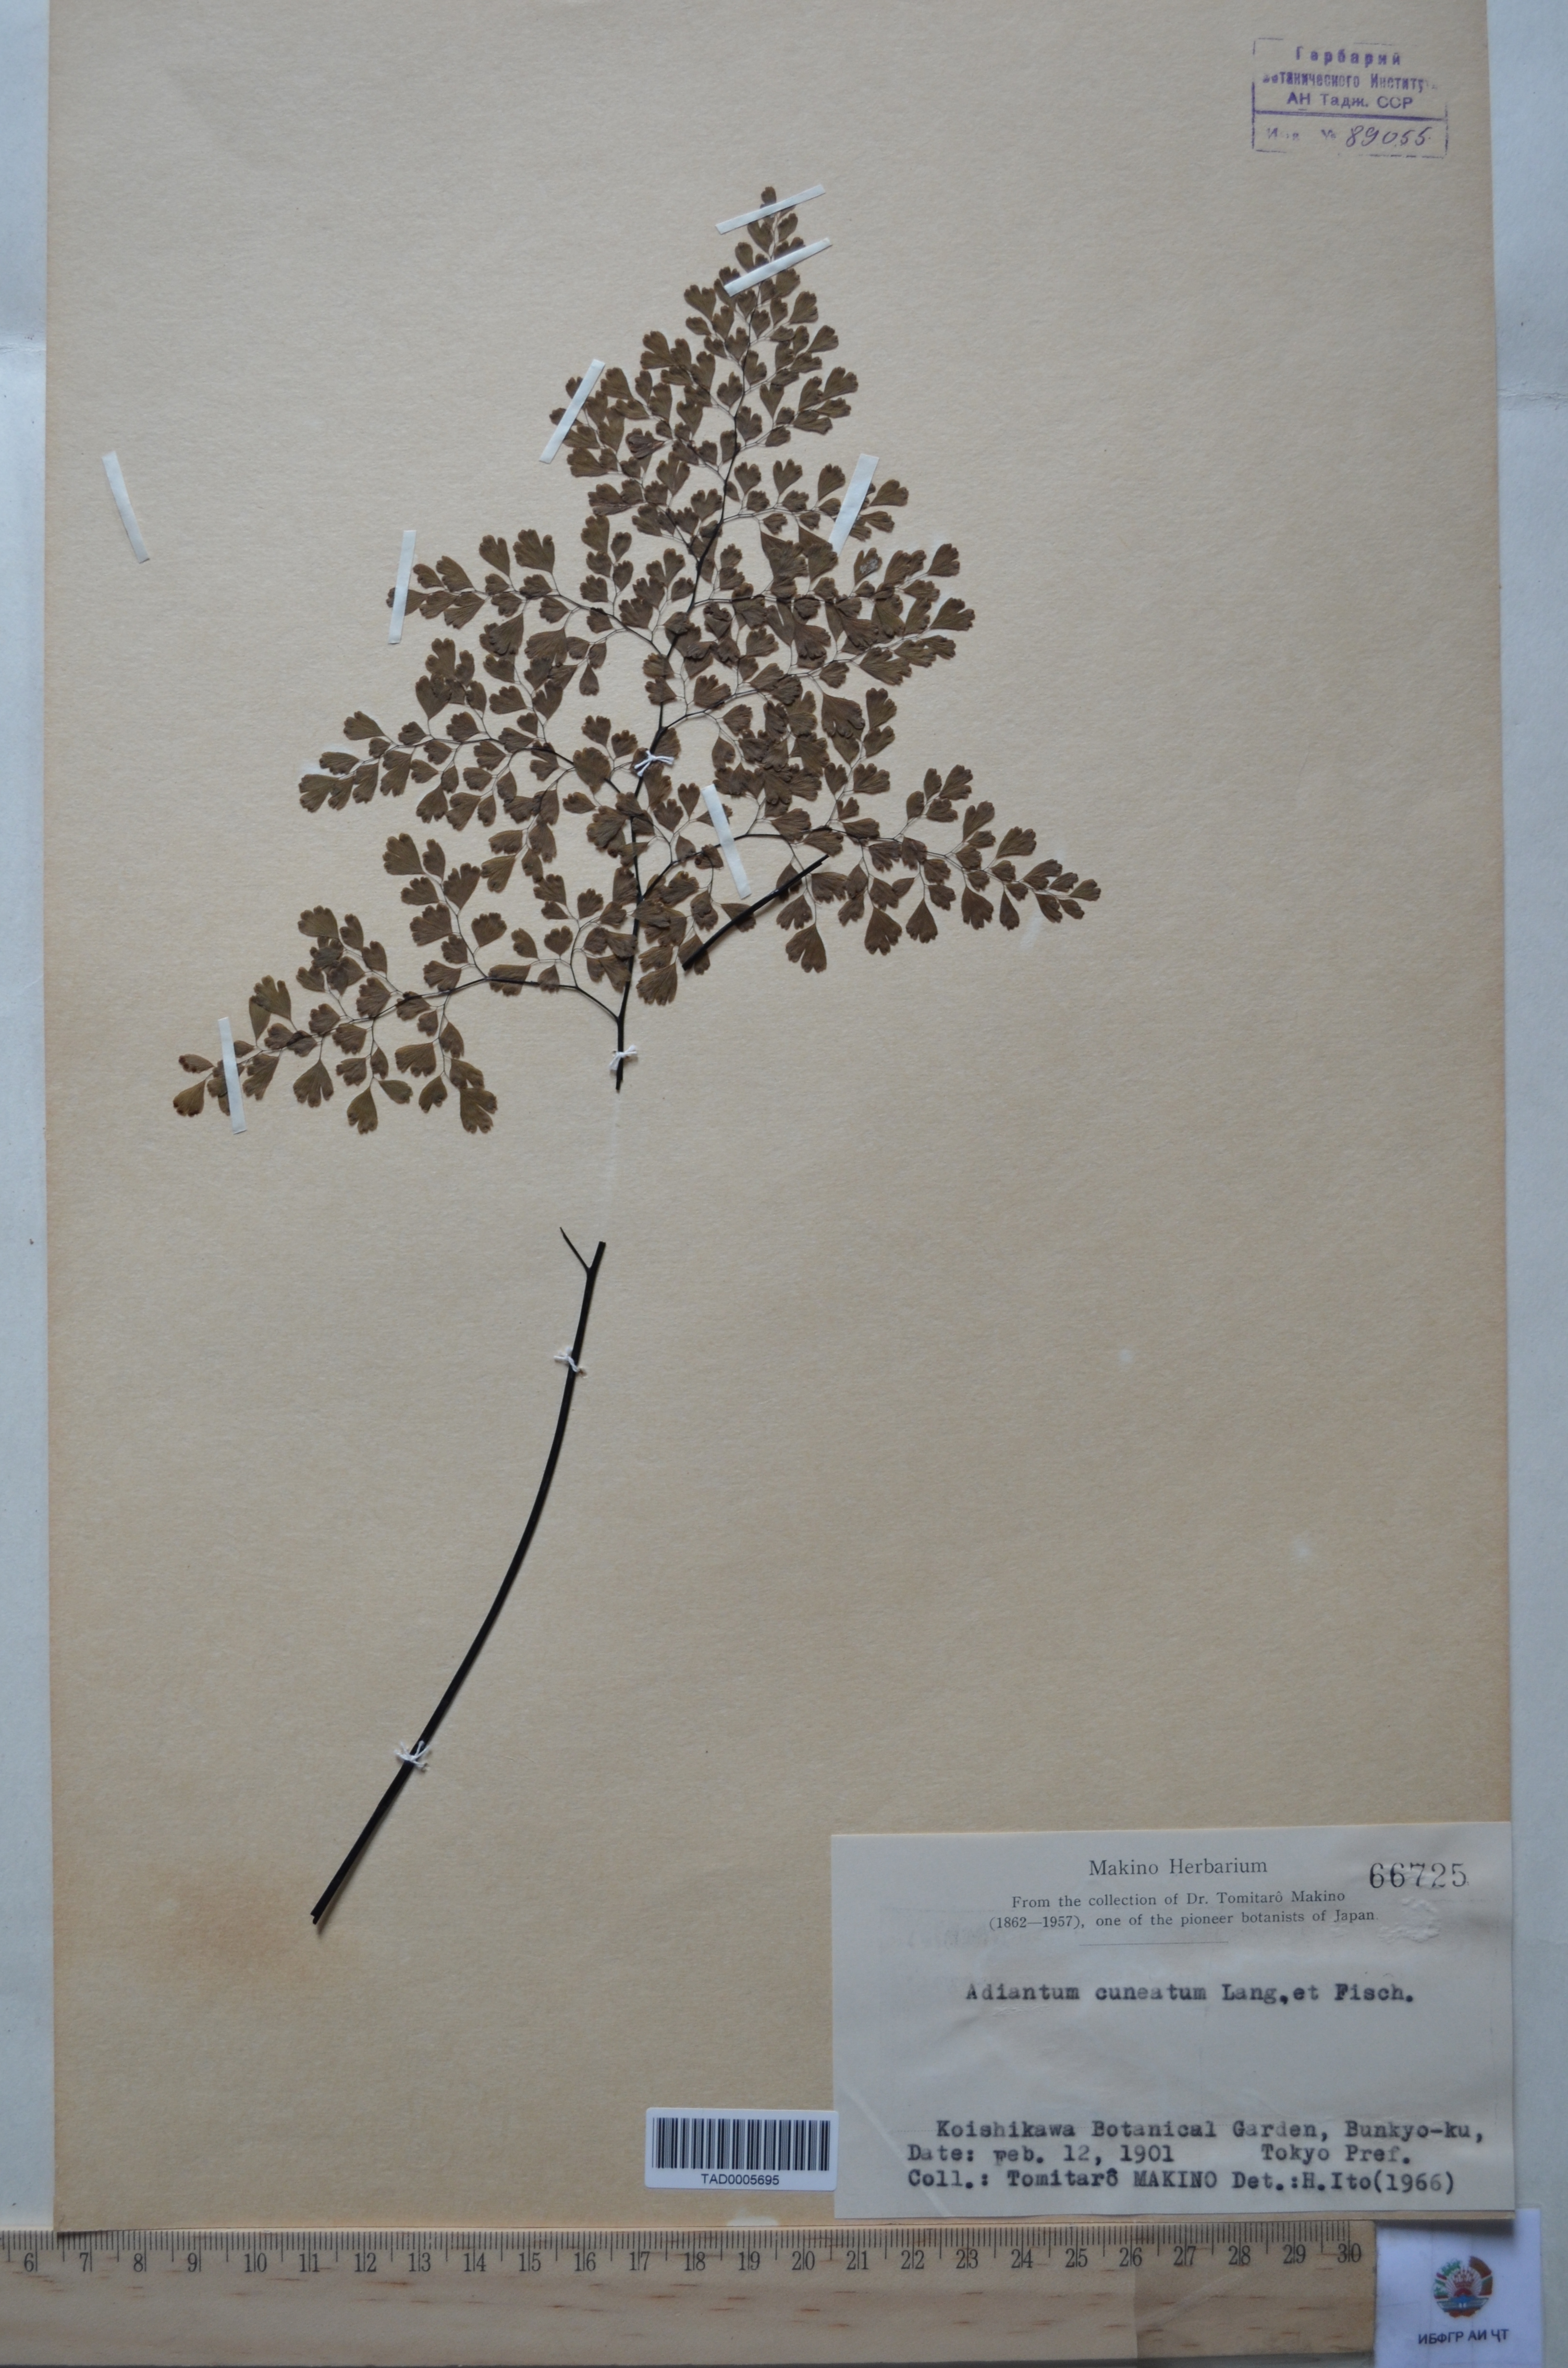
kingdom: Plantae
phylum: Tracheophyta
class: Polypodiopsida
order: Polypodiales
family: Pteridaceae
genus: Adiantum
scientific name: Adiantum
